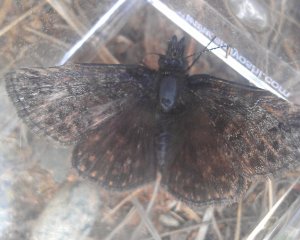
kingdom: Animalia
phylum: Arthropoda
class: Insecta
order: Lepidoptera
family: Hesperiidae
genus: Erynnis
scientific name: Erynnis icelus
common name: Dreamy Duskywing
